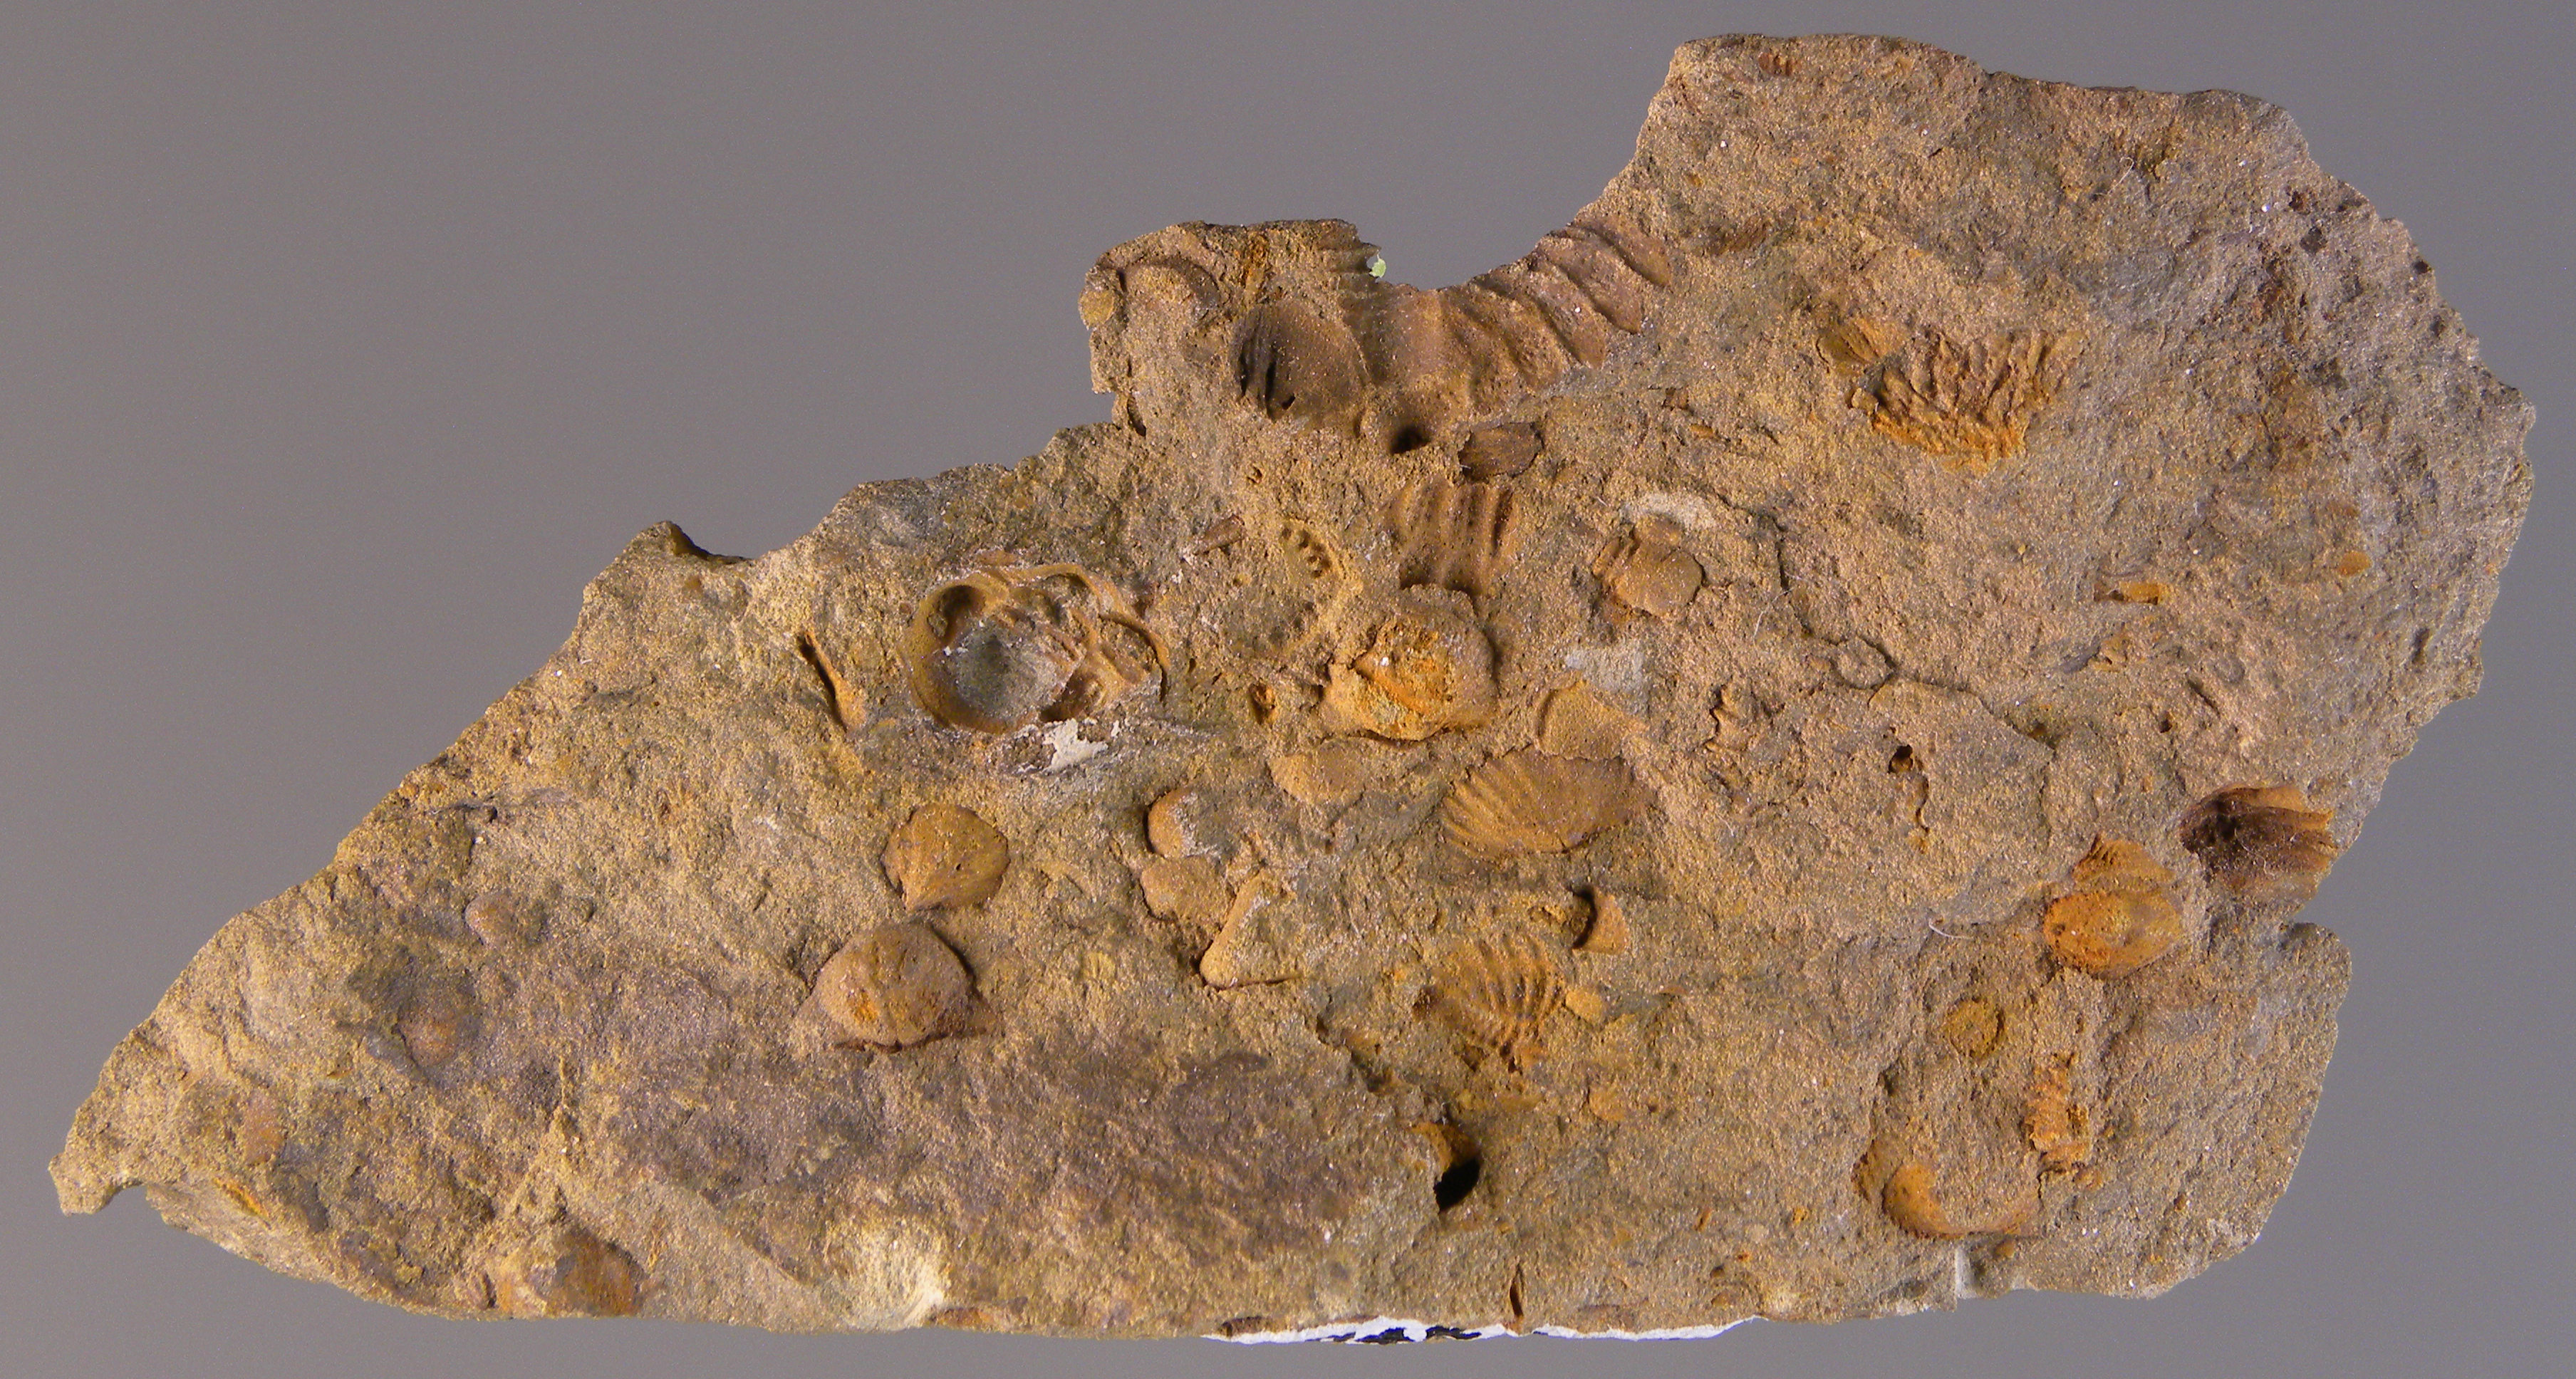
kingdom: Animalia
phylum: Arthropoda
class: Trilobita
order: Phacopida
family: Acastidae
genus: Kayserops
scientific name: Kayserops
